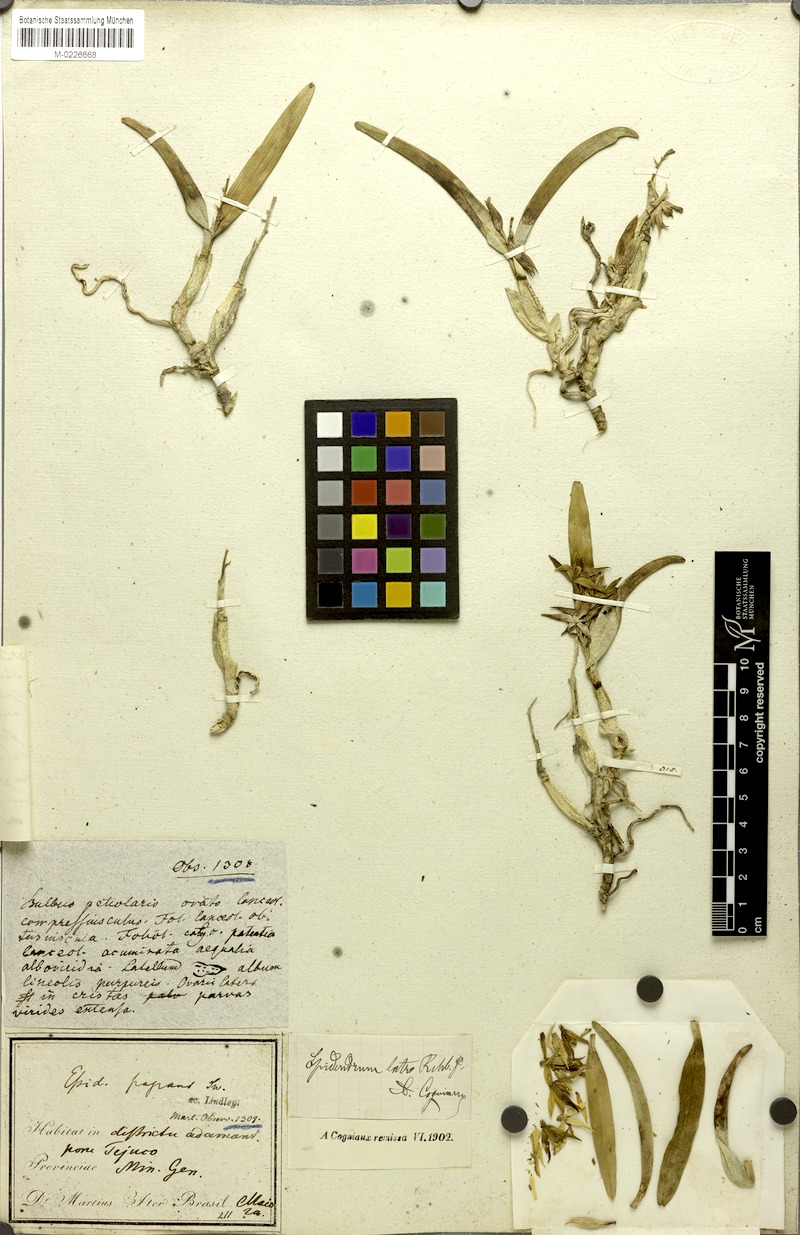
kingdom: Plantae
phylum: Tracheophyta
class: Liliopsida
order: Asparagales
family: Orchidaceae
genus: Prosthechea
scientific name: Prosthechea bulbosa
